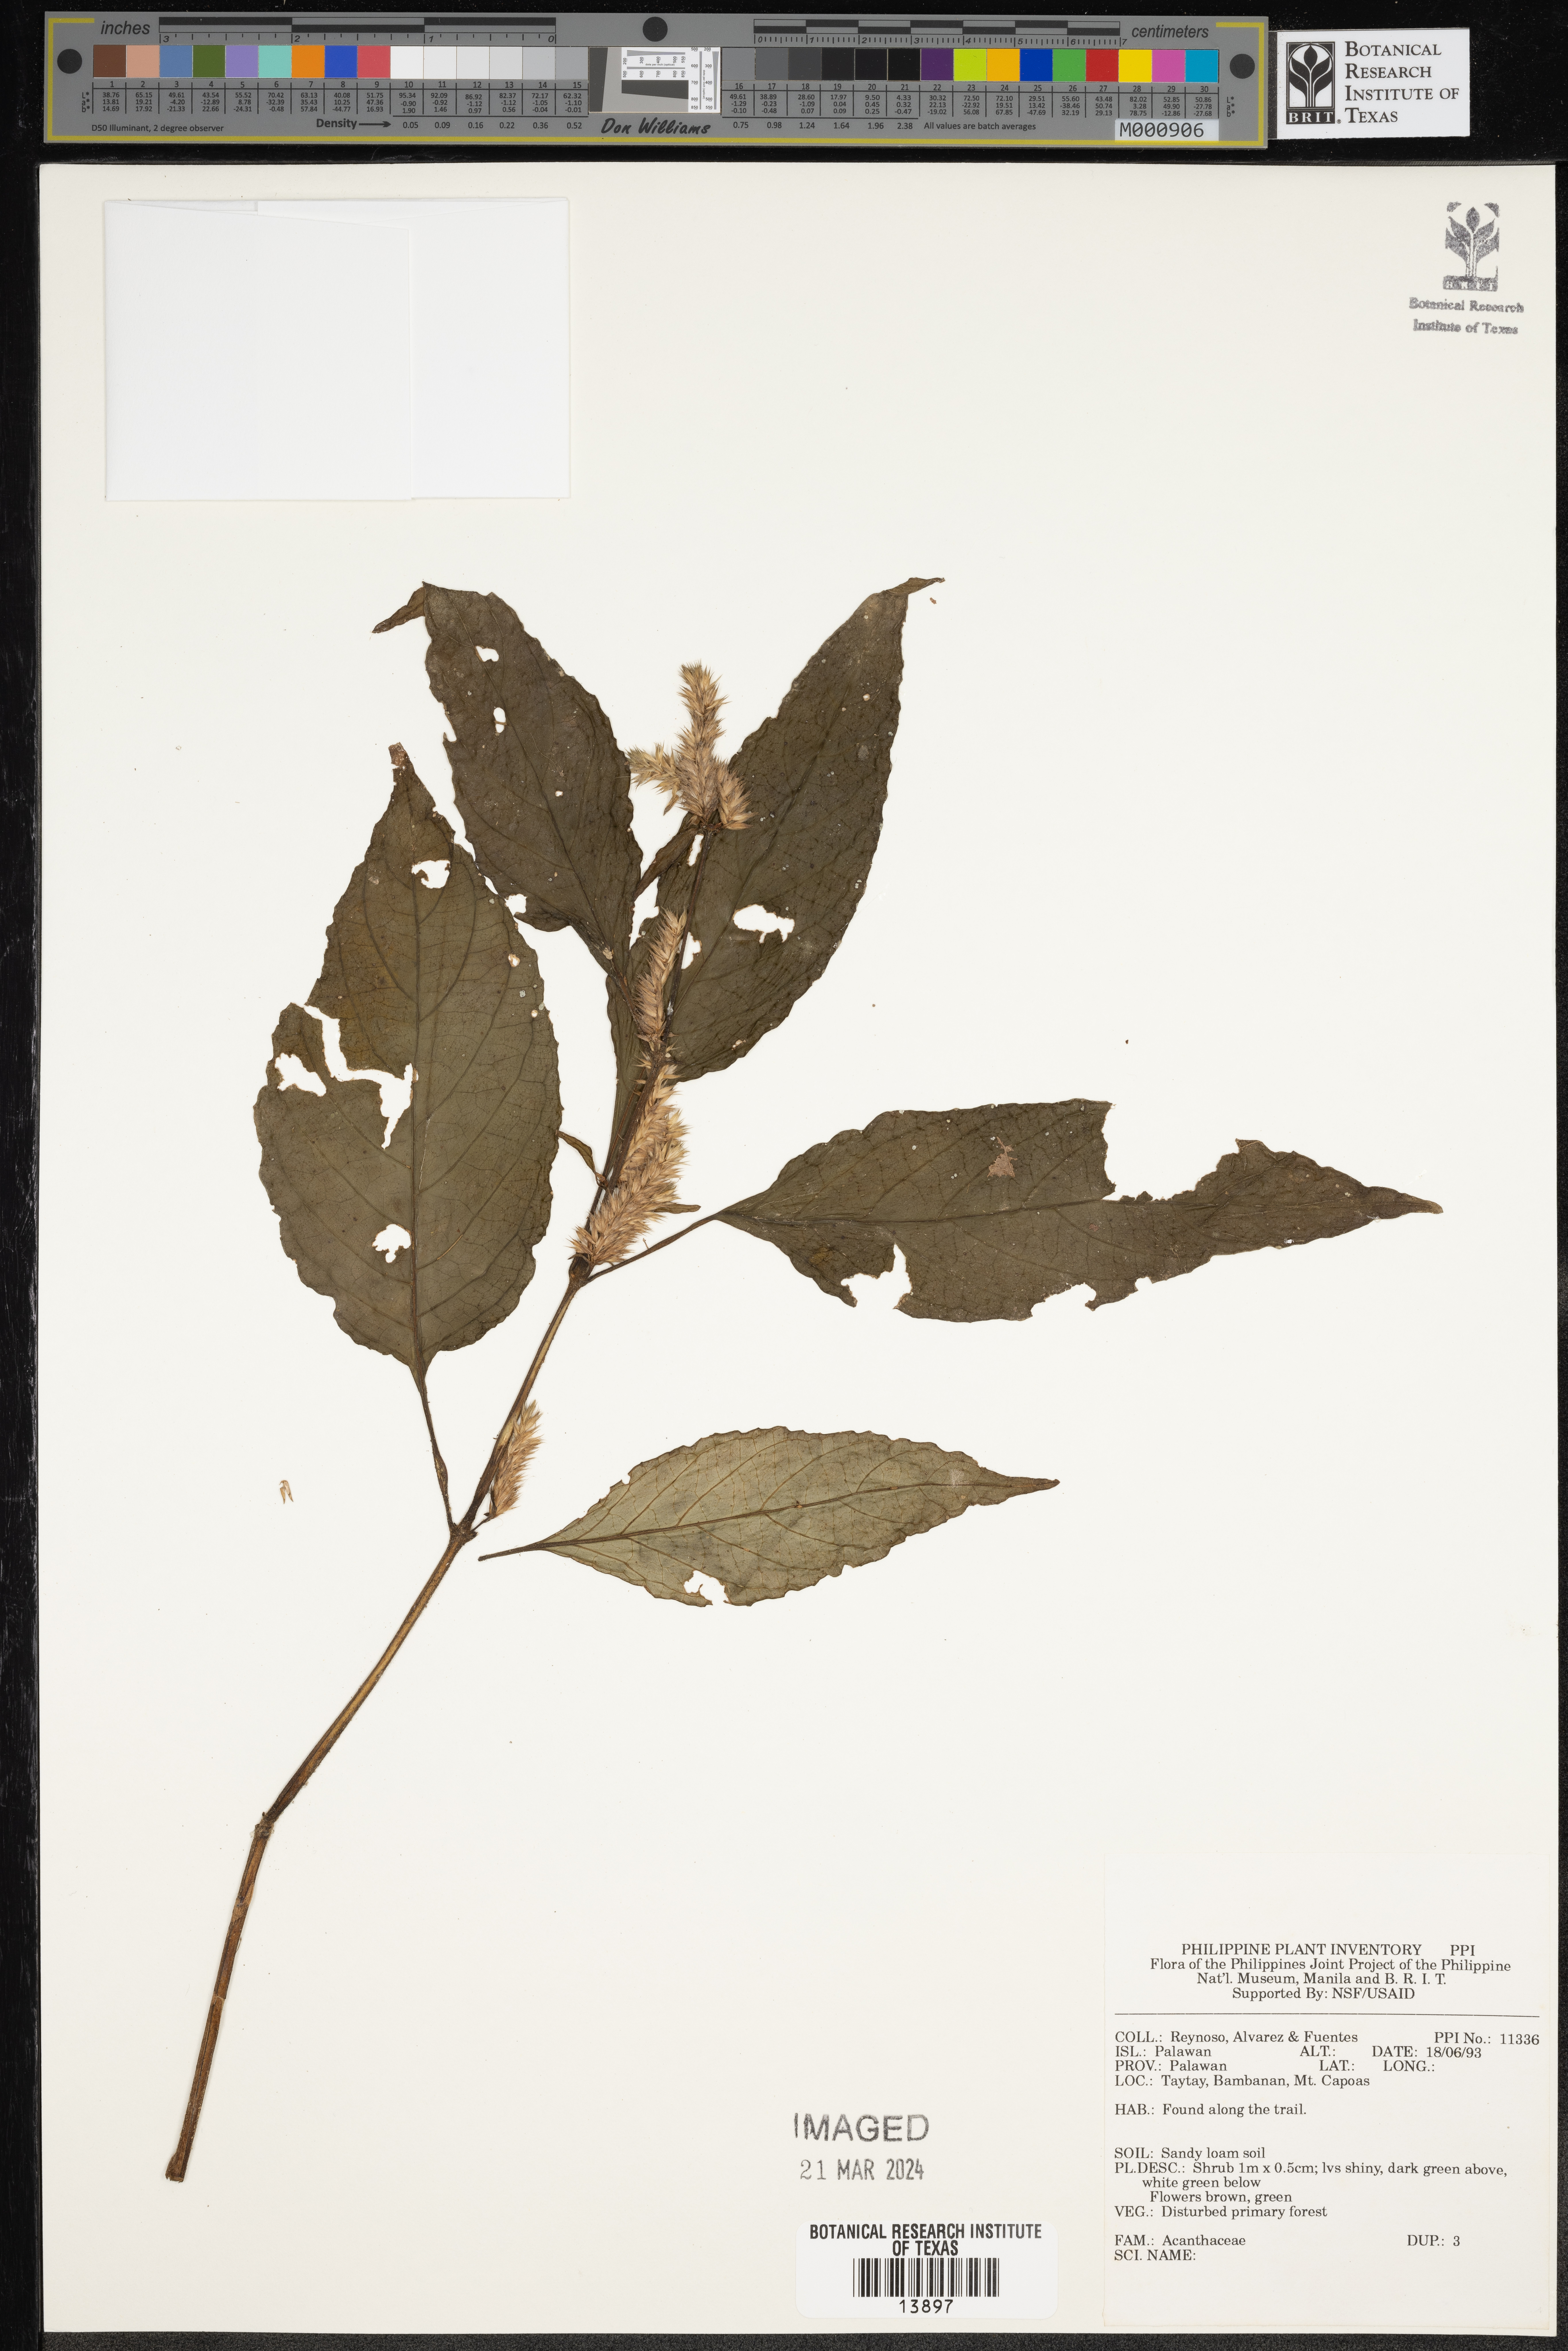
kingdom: Plantae
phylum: Tracheophyta
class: Magnoliopsida
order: Lamiales
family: Acanthaceae
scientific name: Acanthaceae
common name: Acanthaceae
